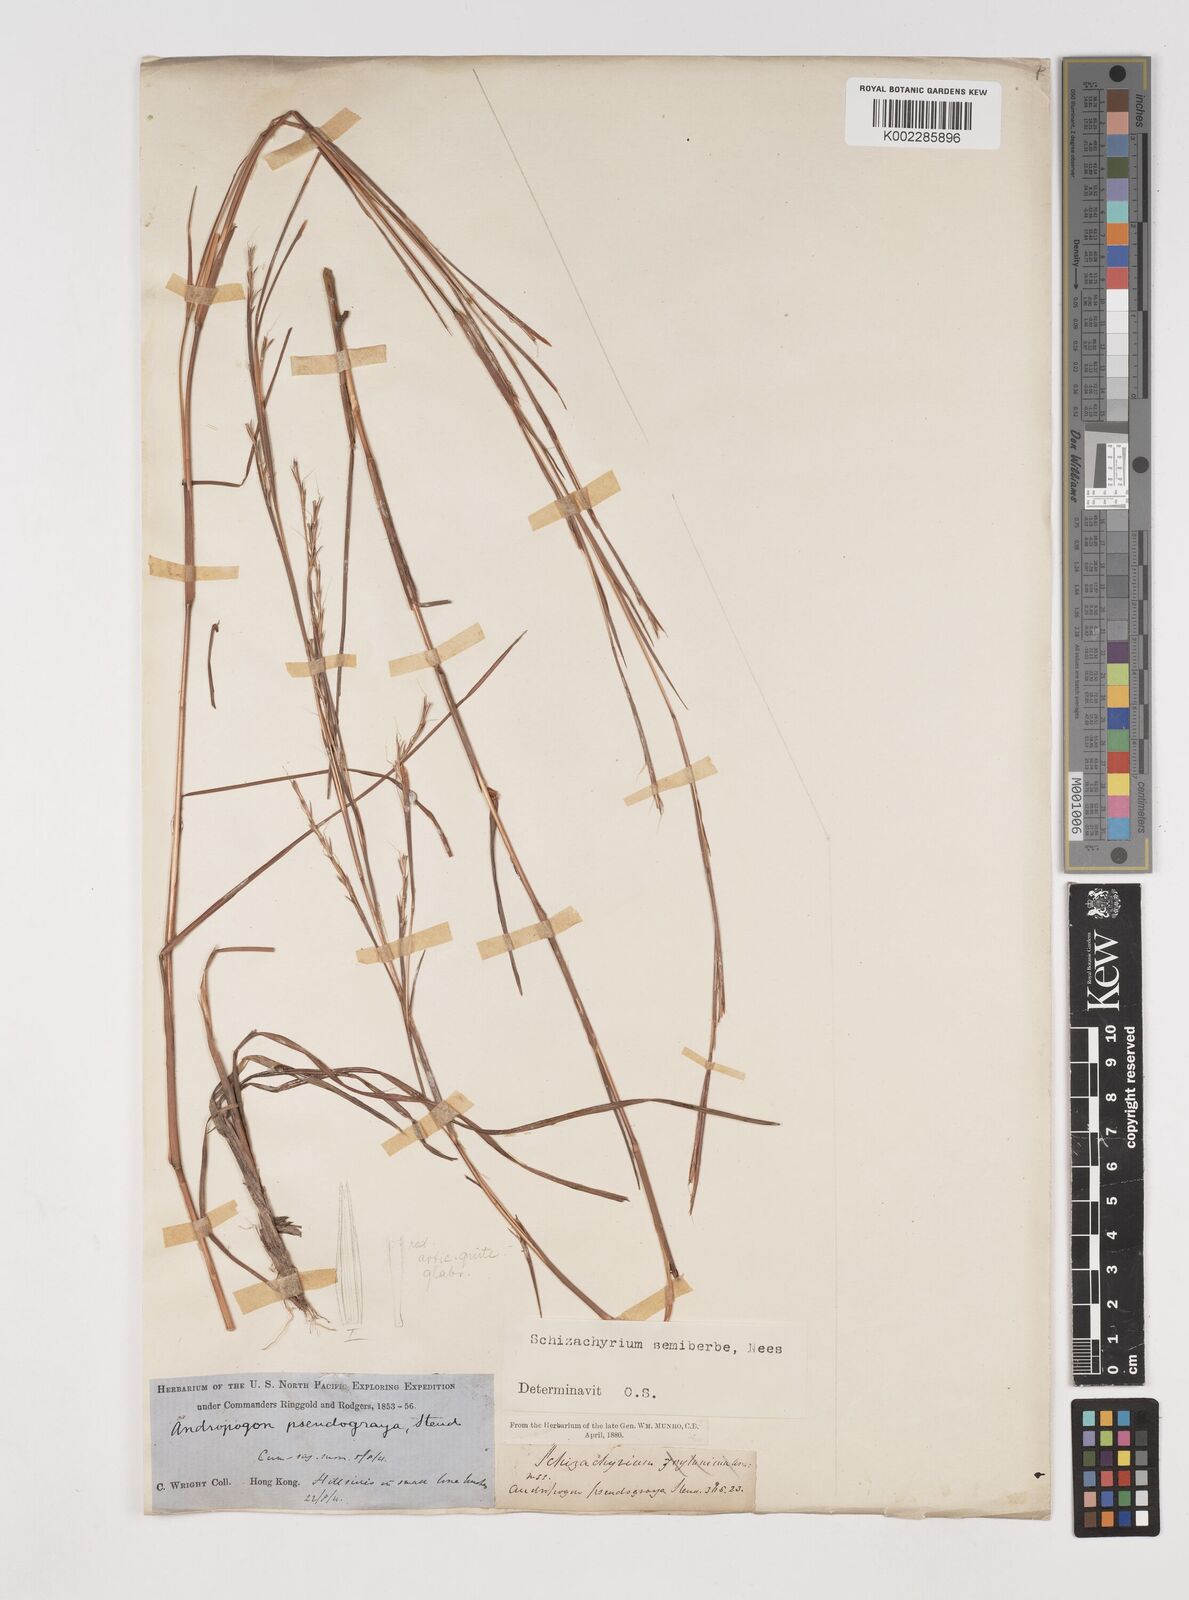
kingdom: Plantae
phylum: Tracheophyta
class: Liliopsida
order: Poales
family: Poaceae
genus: Schizachyrium
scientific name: Schizachyrium sanguineum
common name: Crimson bluestem
